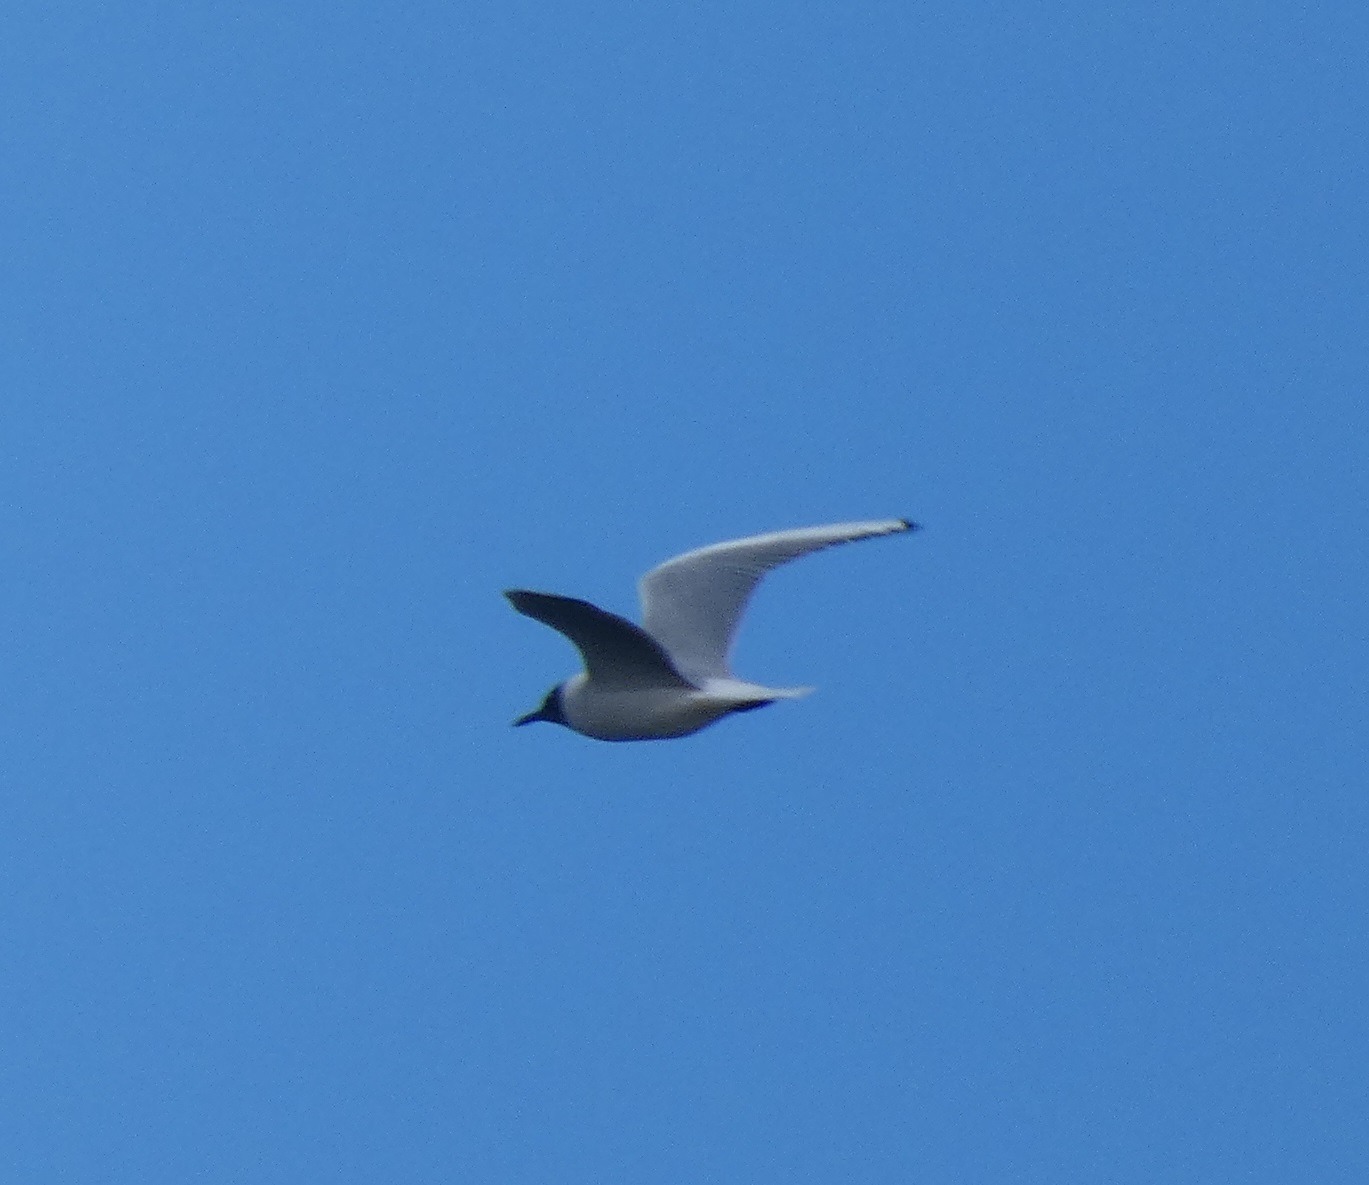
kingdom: Animalia
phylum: Chordata
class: Aves
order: Charadriiformes
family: Laridae
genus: Chroicocephalus
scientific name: Chroicocephalus ridibundus
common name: Hættemåge
